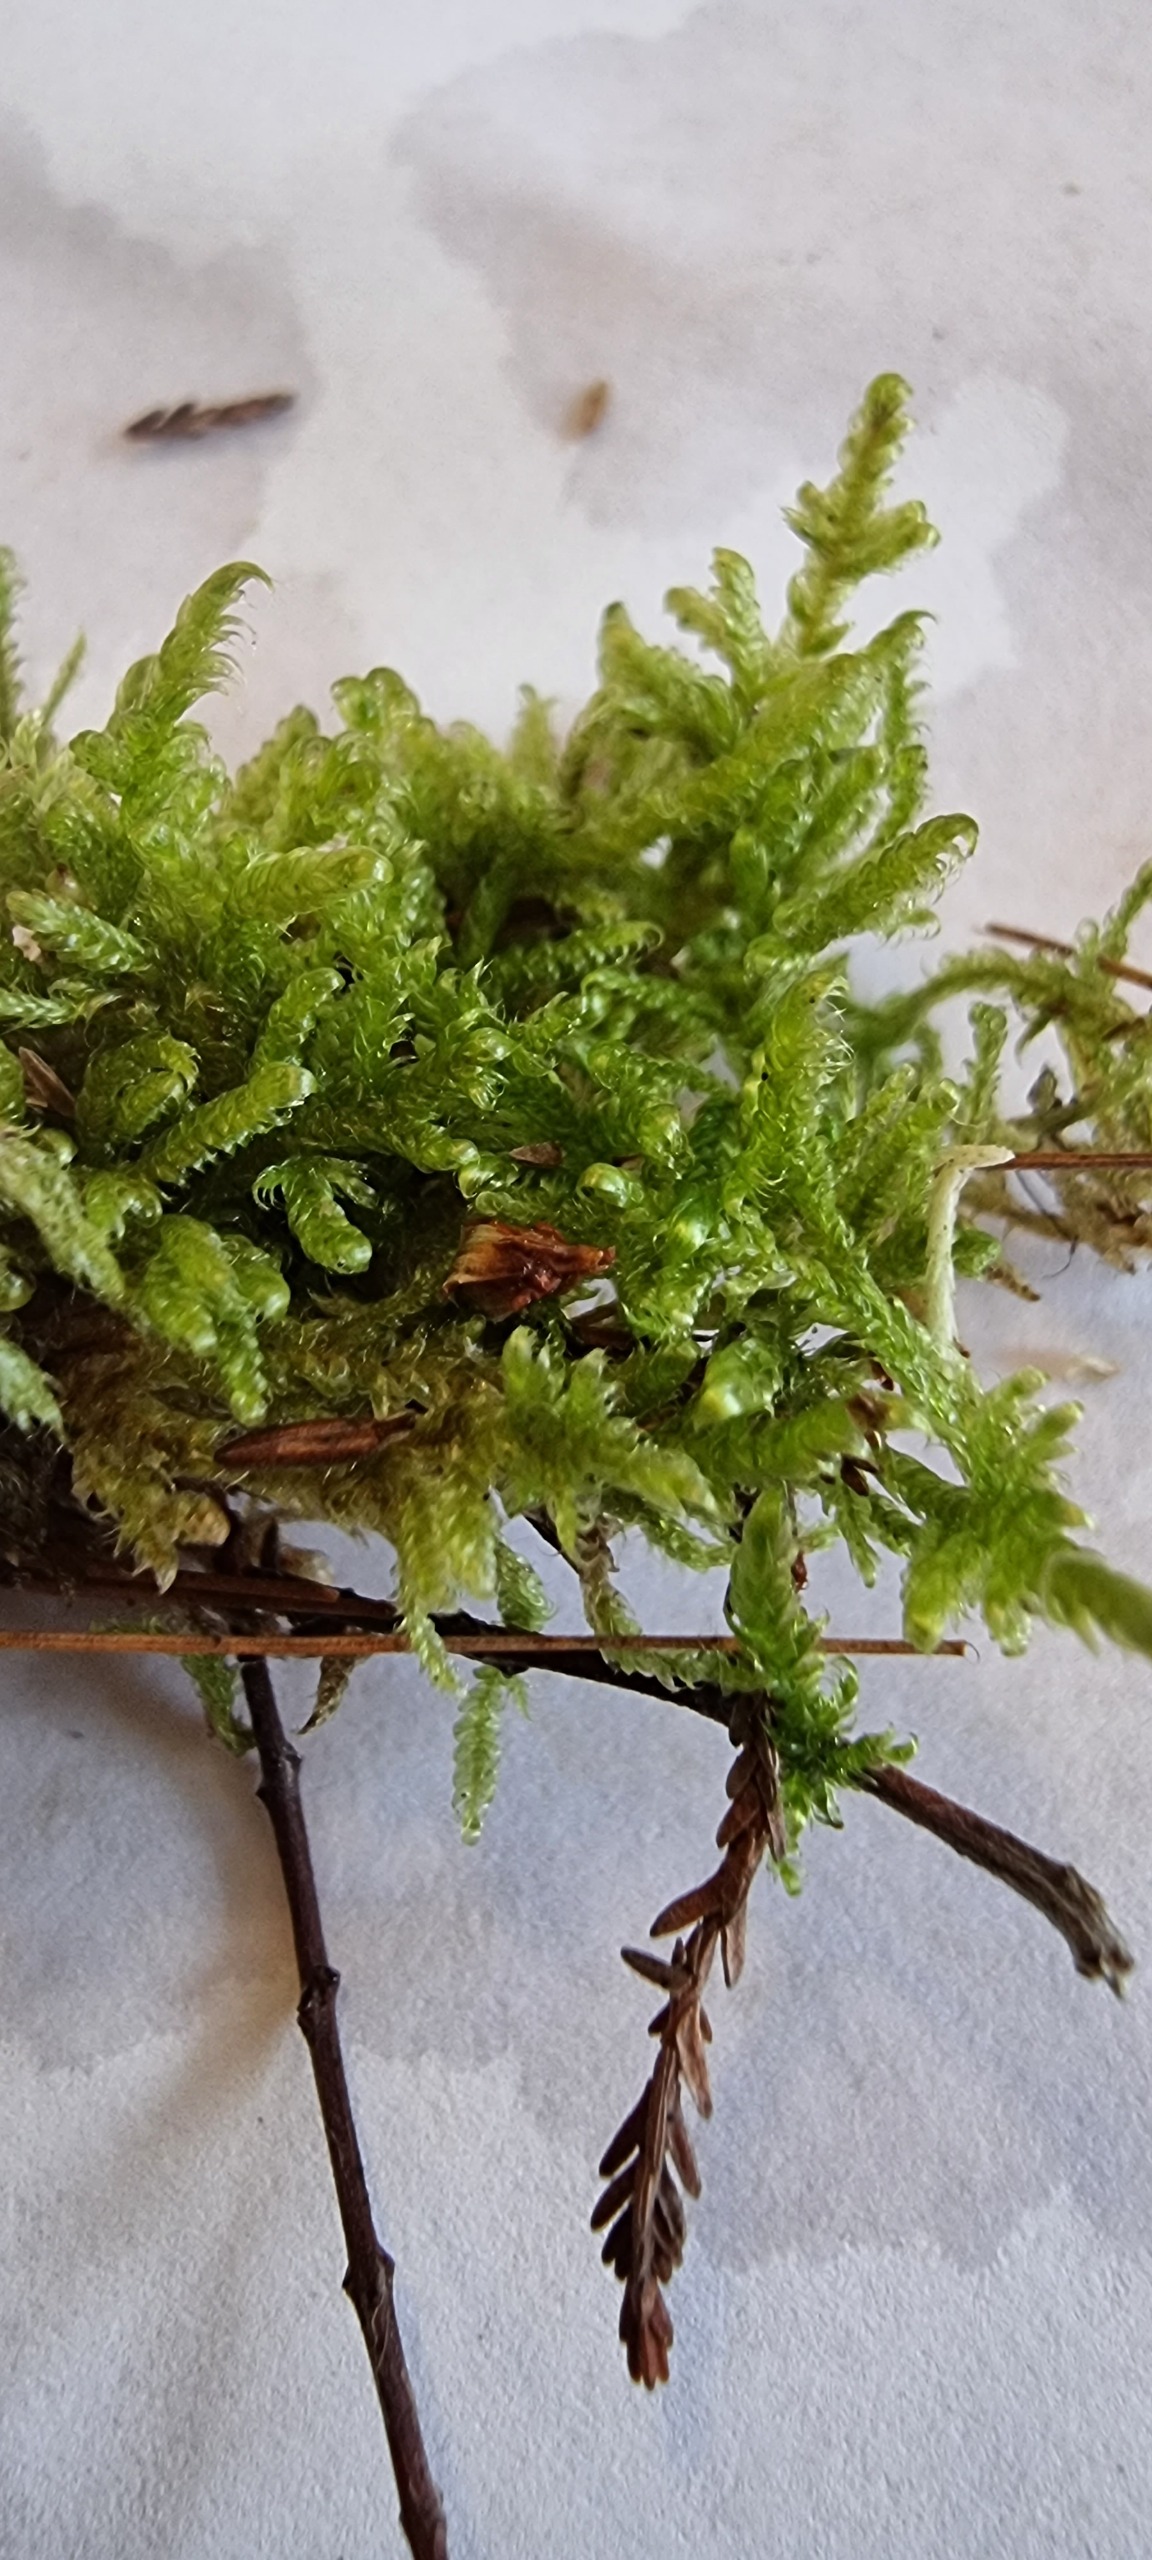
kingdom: Plantae
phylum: Bryophyta
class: Bryopsida
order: Hypnales
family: Hypnaceae
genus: Hypnum
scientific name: Hypnum jutlandicum
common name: Hede-cypresmos
